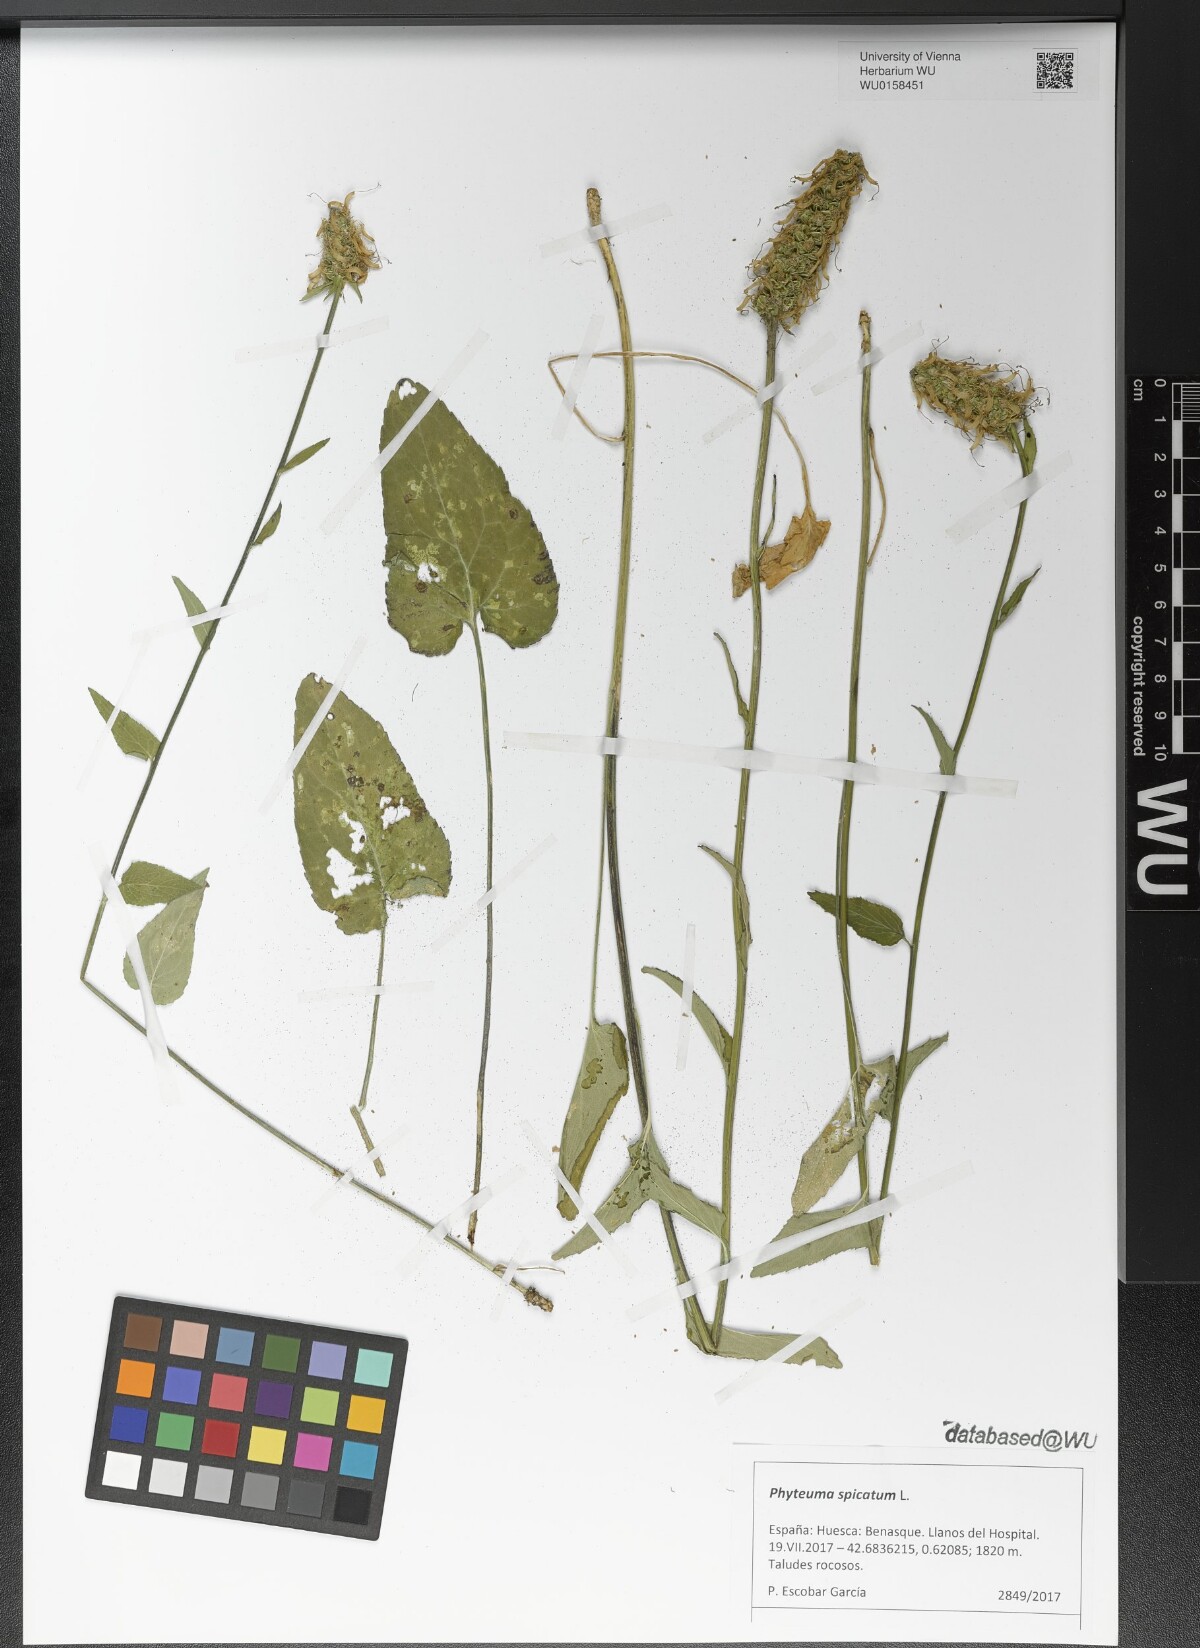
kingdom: Plantae
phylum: Tracheophyta
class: Magnoliopsida
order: Asterales
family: Campanulaceae
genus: Phyteuma
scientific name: Phyteuma spicatum
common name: Spiked rampion
